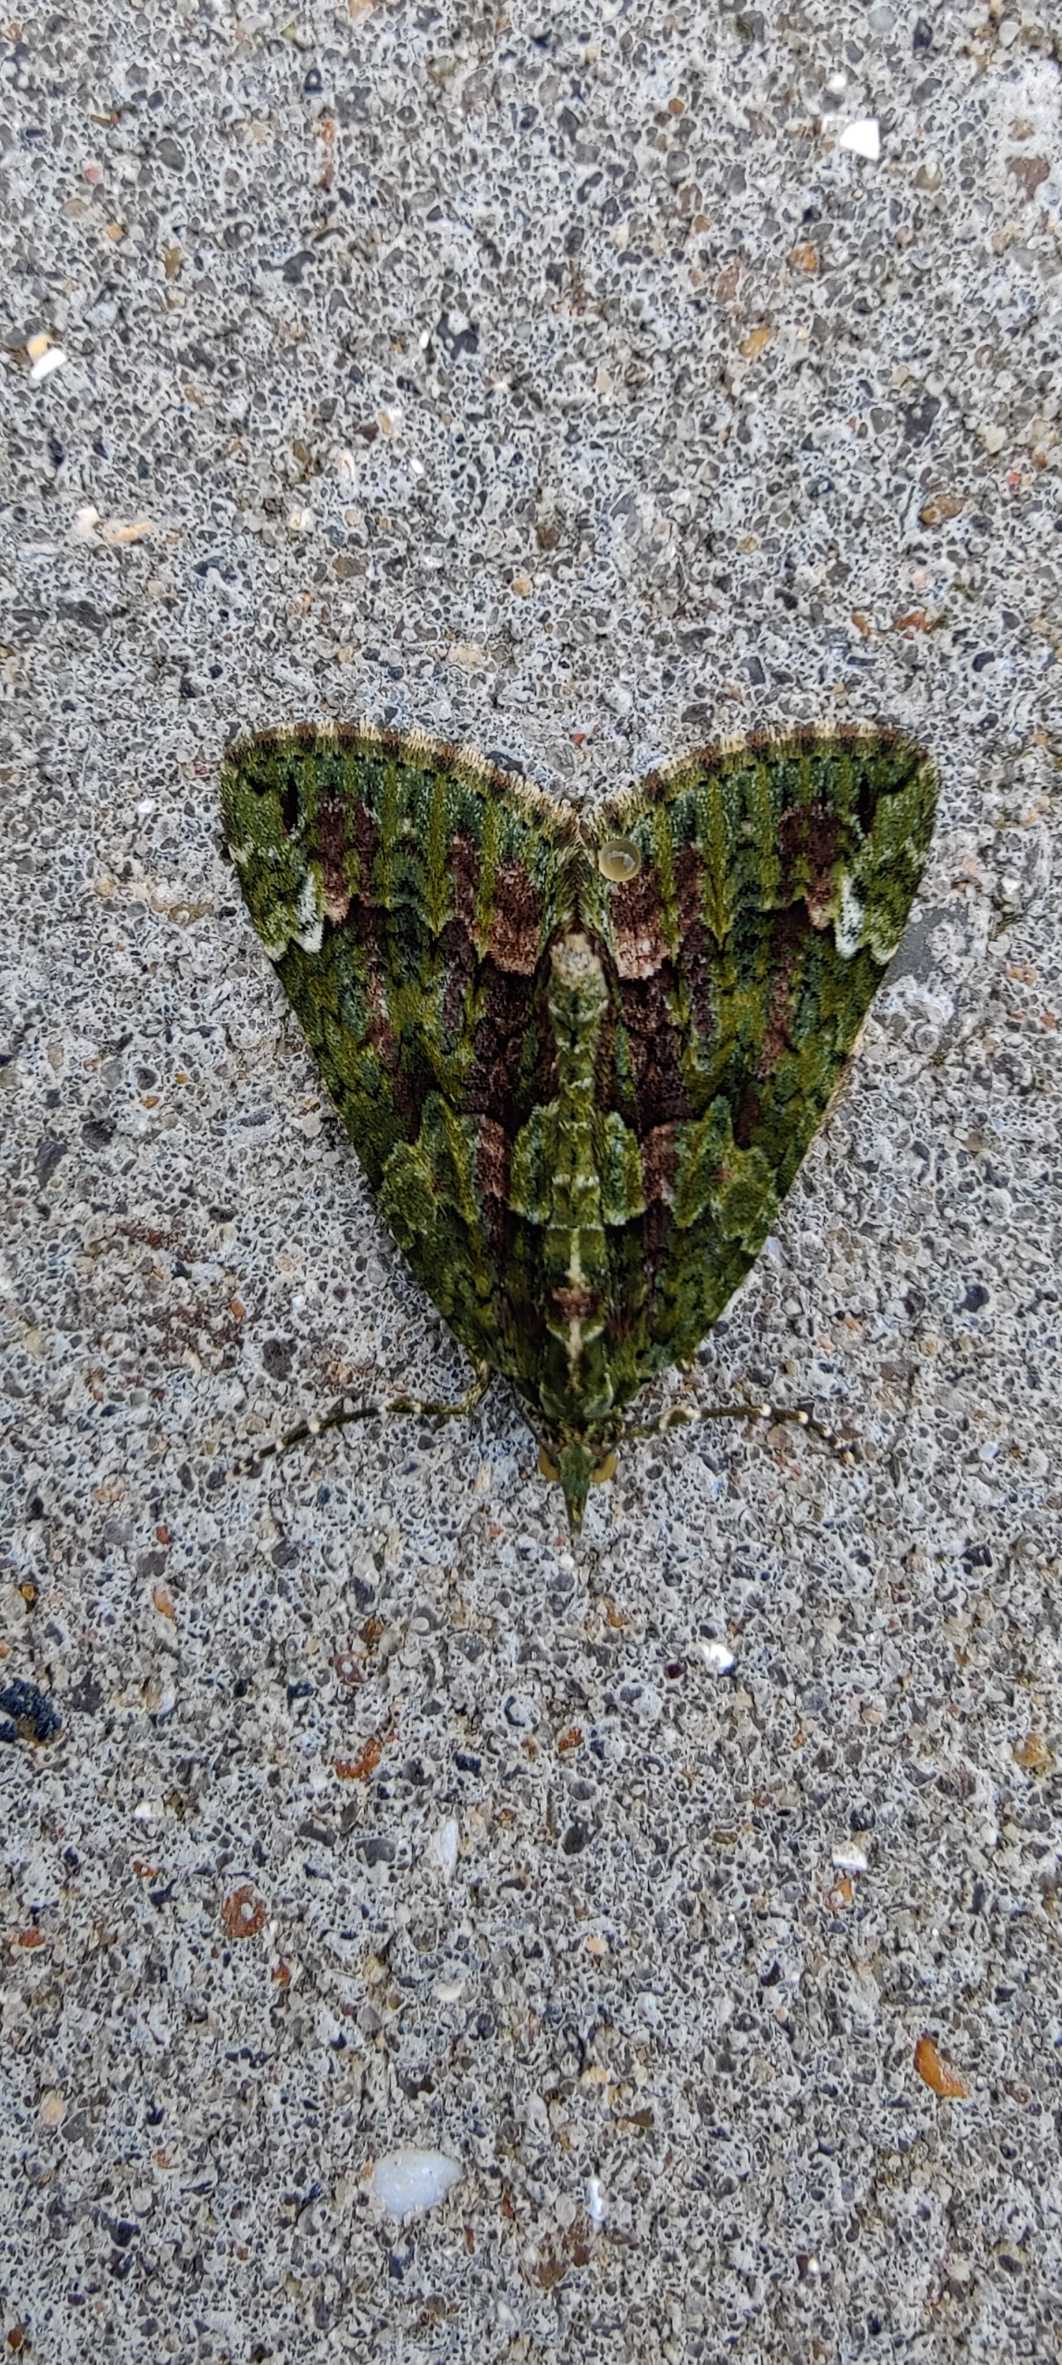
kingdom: Animalia
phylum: Arthropoda
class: Insecta
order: Lepidoptera
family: Geometridae
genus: Chloroclysta
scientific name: Chloroclysta siterata
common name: Brungrøn bladmåler
